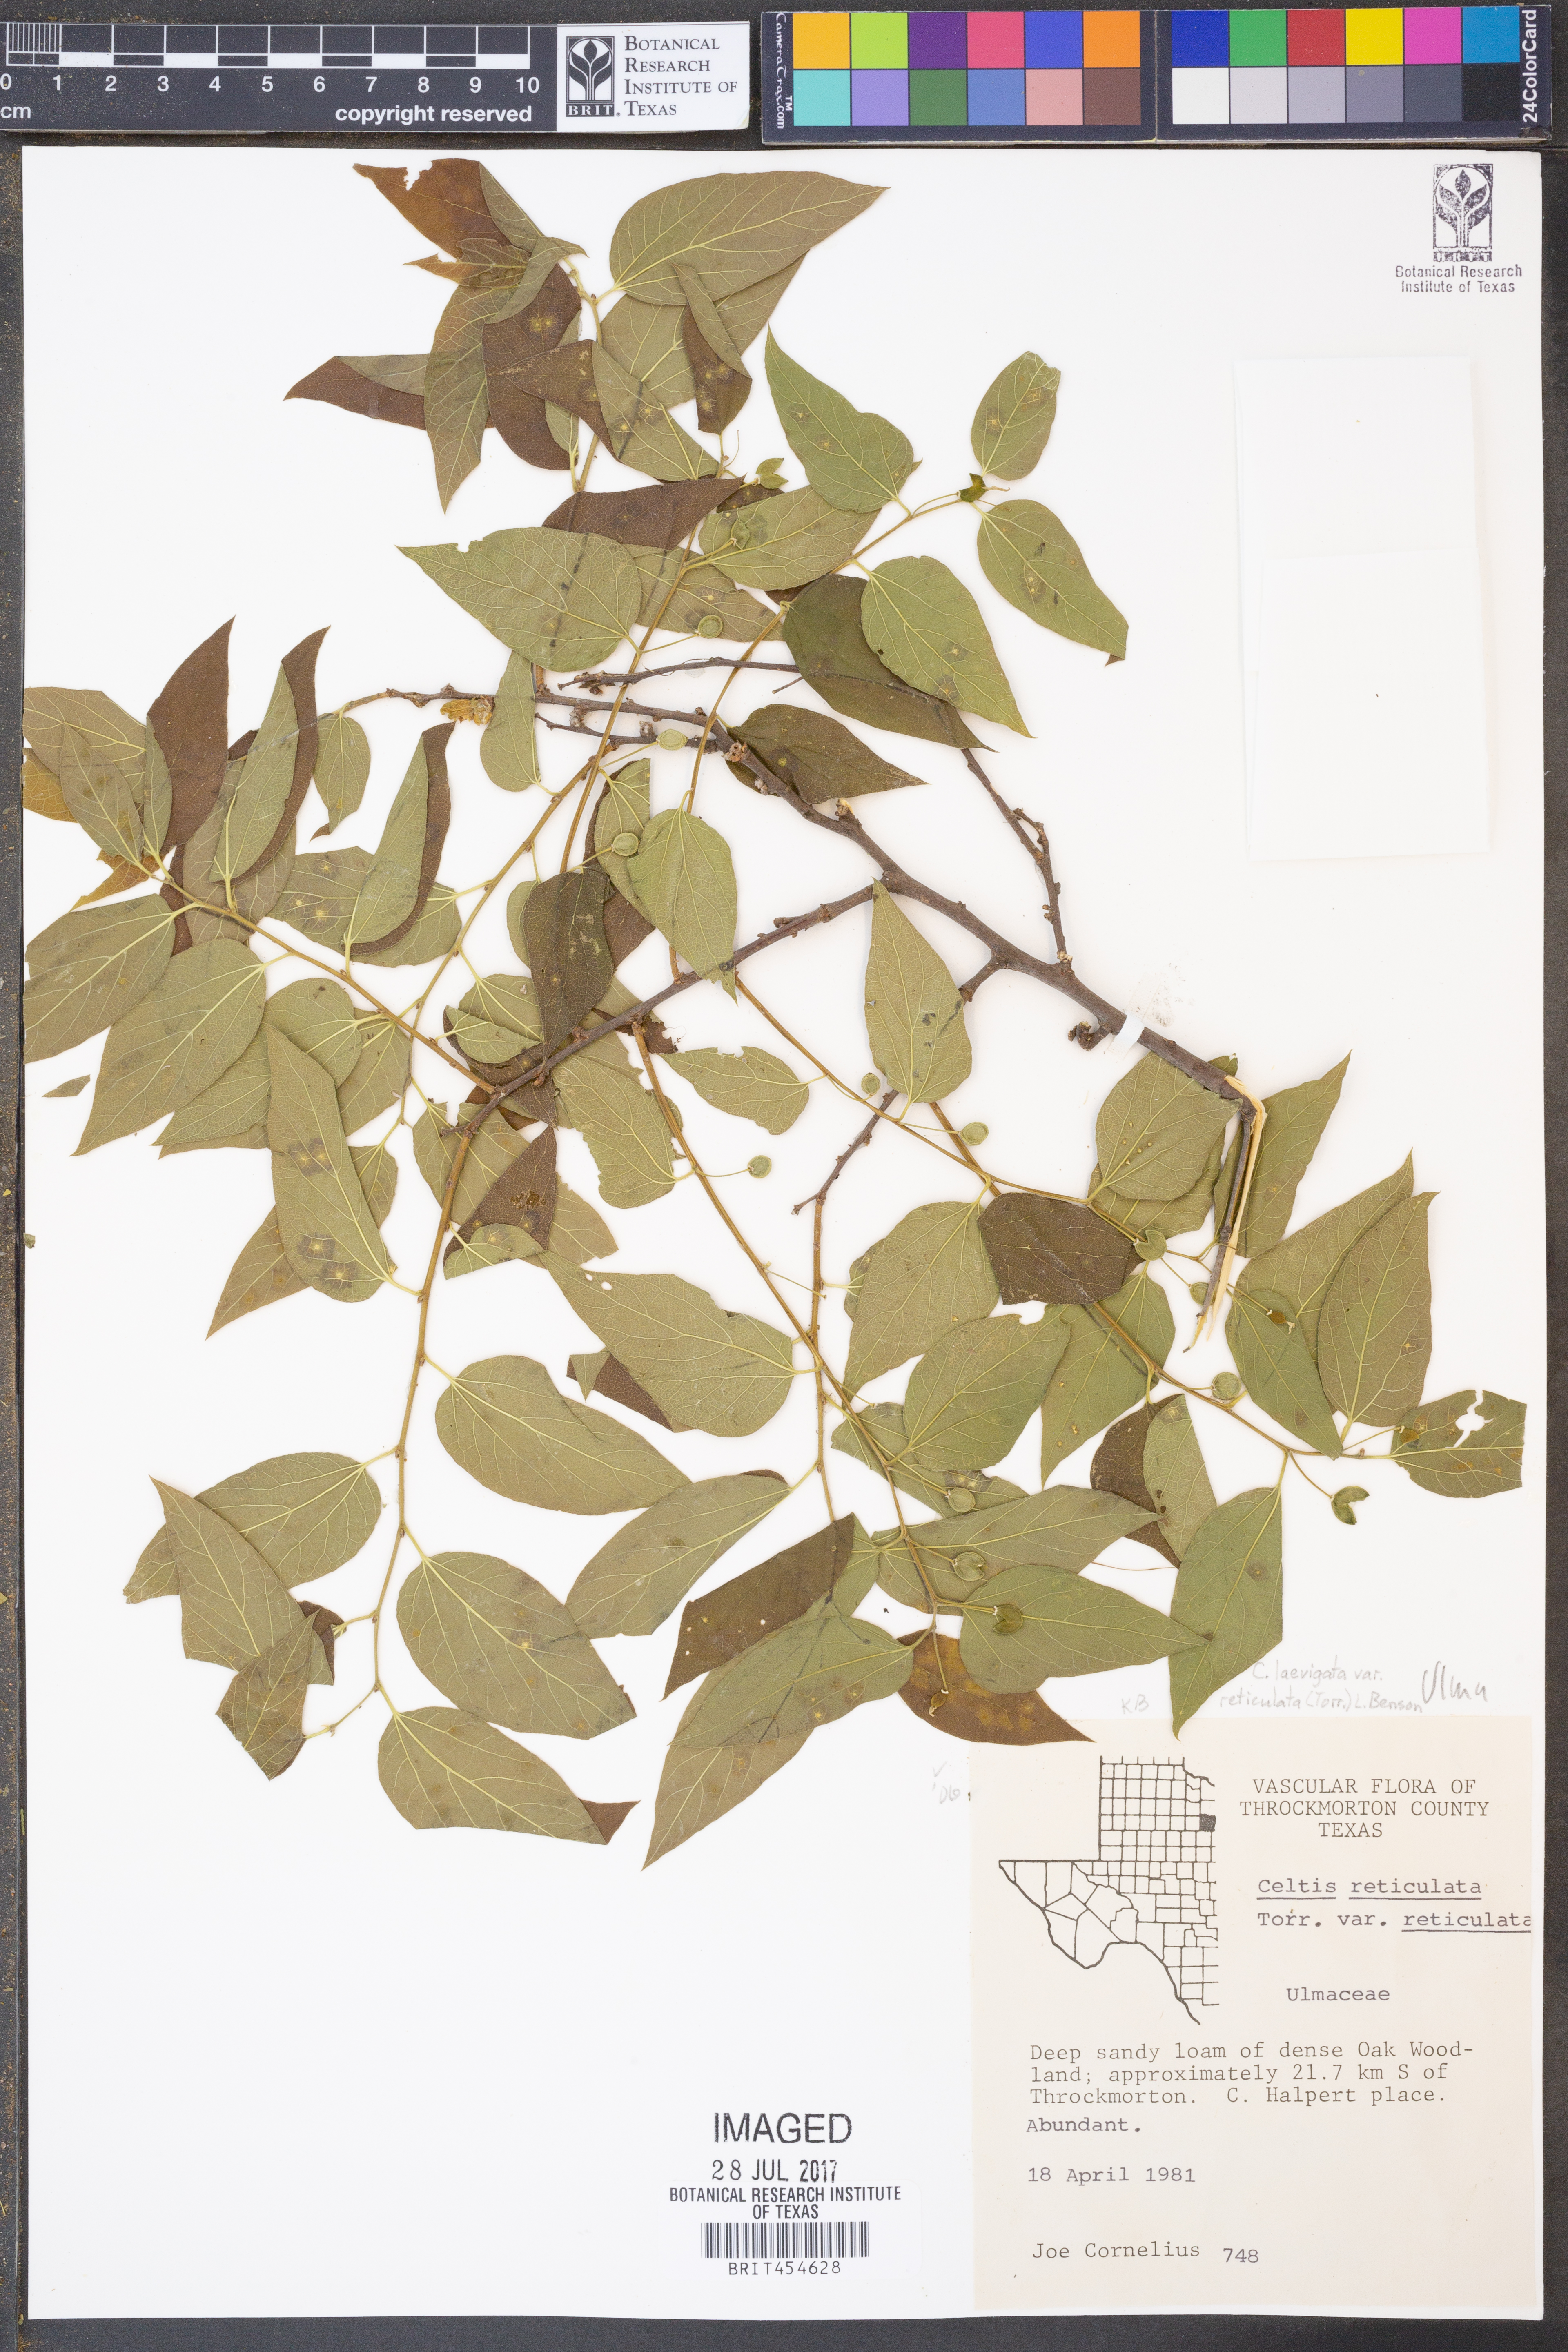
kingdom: Plantae
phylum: Tracheophyta
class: Magnoliopsida
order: Rosales
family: Cannabaceae
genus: Celtis
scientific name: Celtis reticulata
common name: Netleaf hackberry
